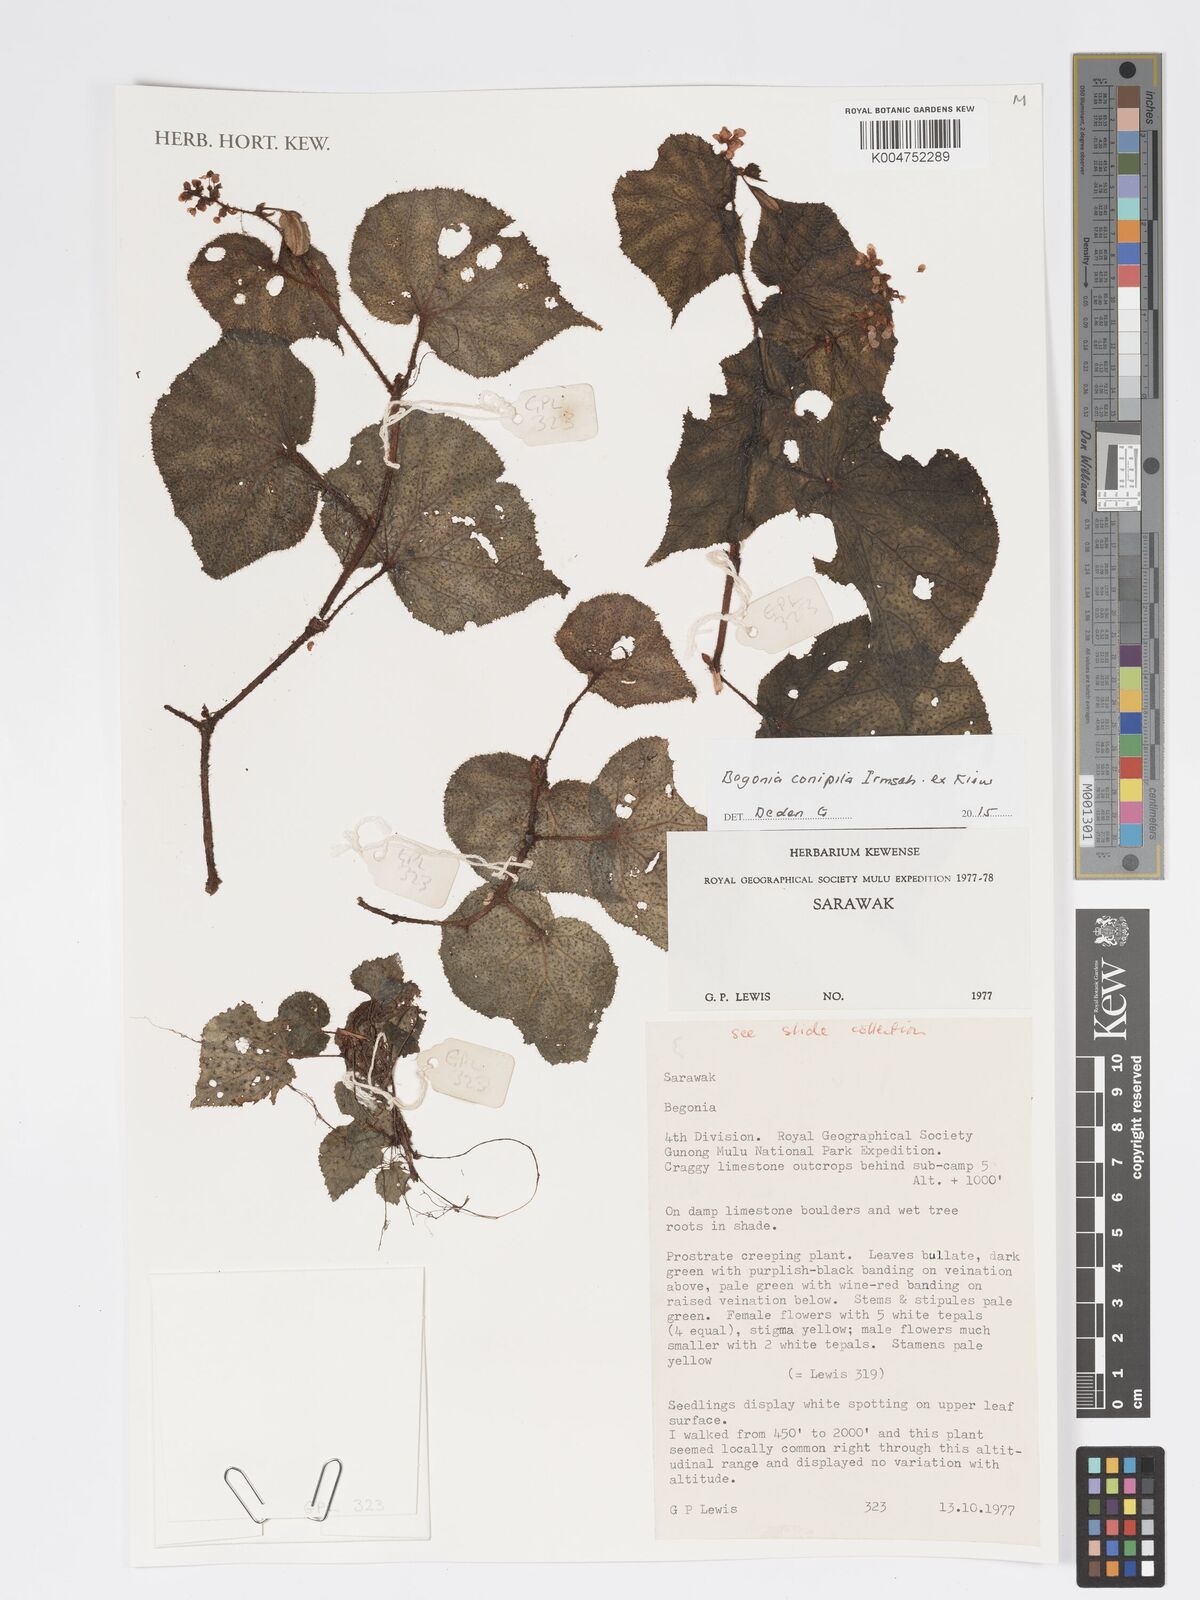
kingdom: Plantae
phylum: Tracheophyta
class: Magnoliopsida
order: Cucurbitales
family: Begoniaceae
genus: Begonia
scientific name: Begonia conipila
